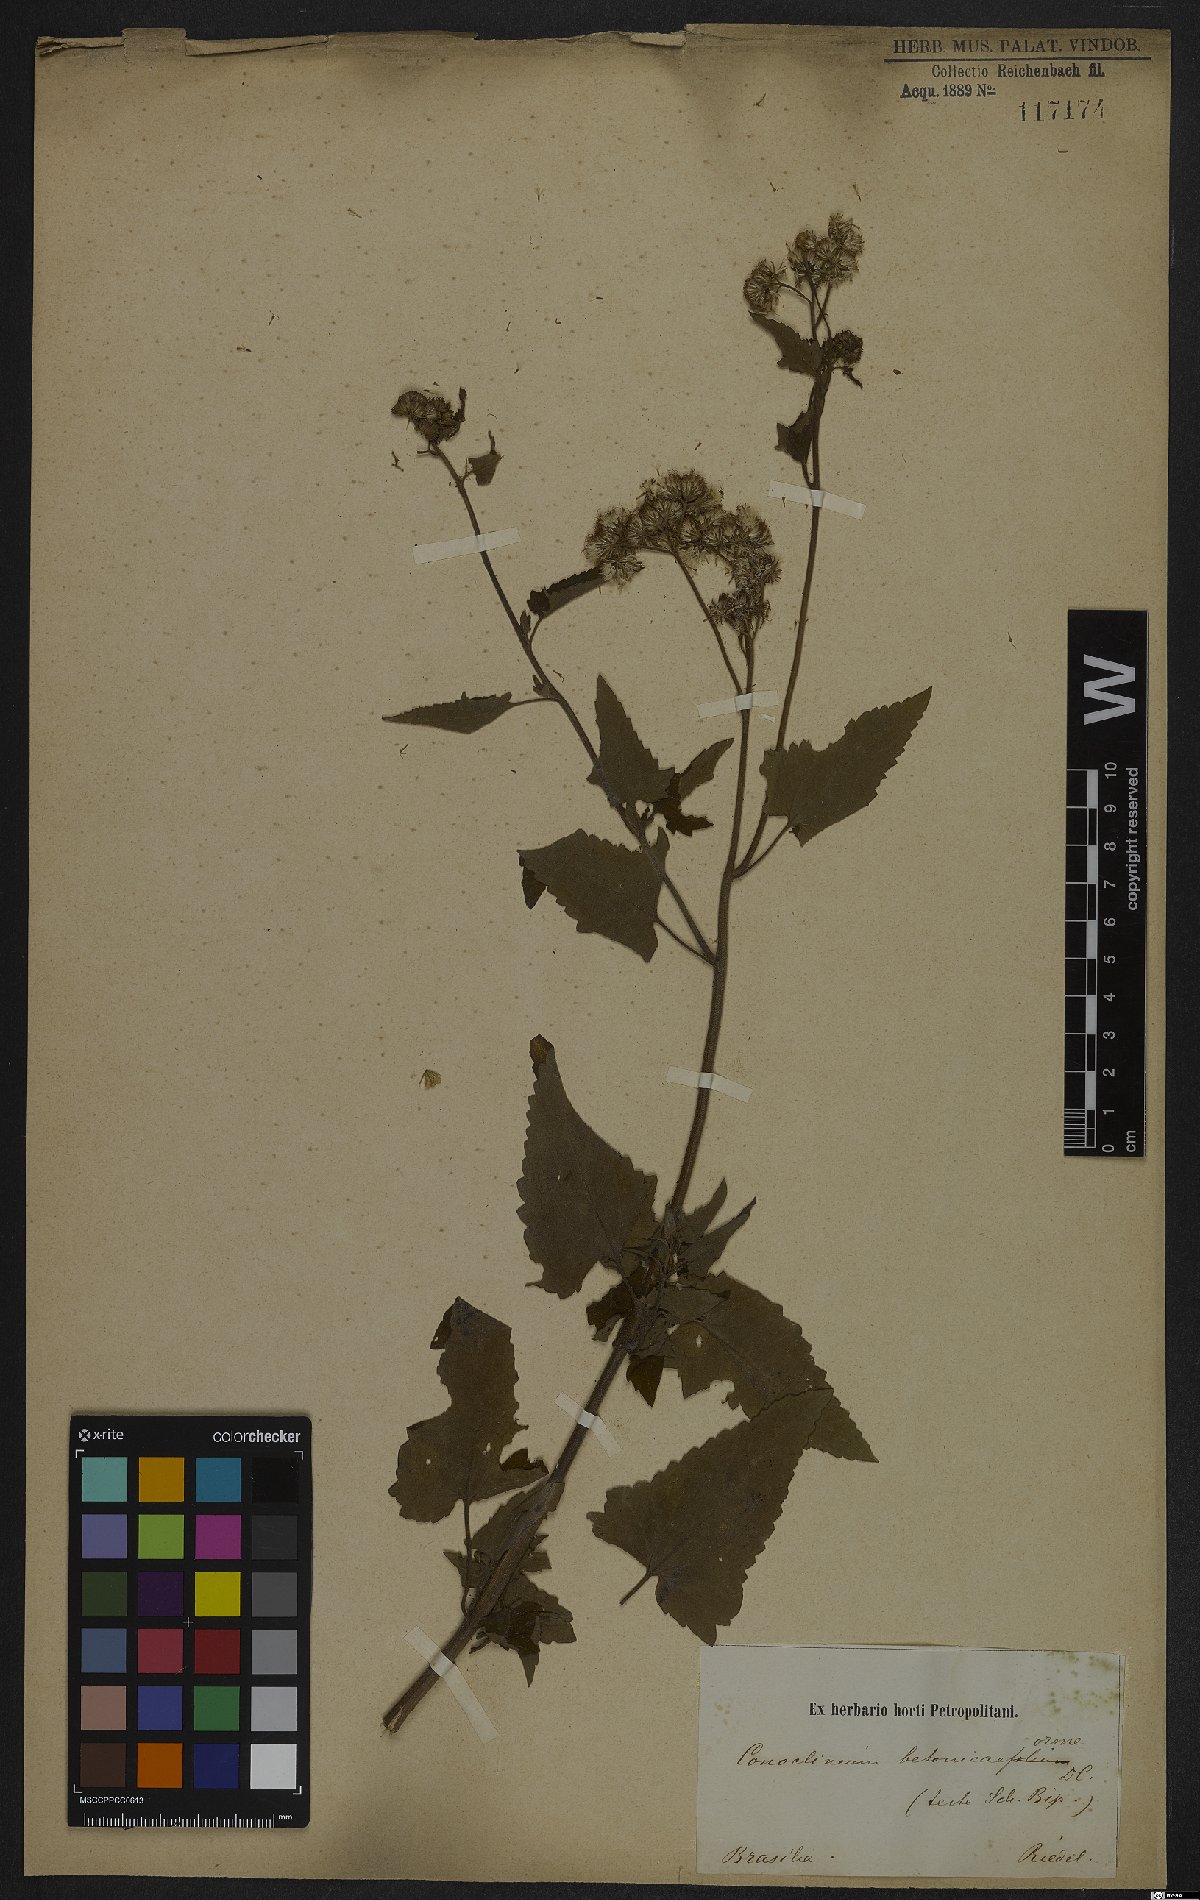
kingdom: Plantae
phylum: Tracheophyta
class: Magnoliopsida
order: Asterales
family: Asteraceae
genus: Barrosoa
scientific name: Barrosoa betoniciformis
